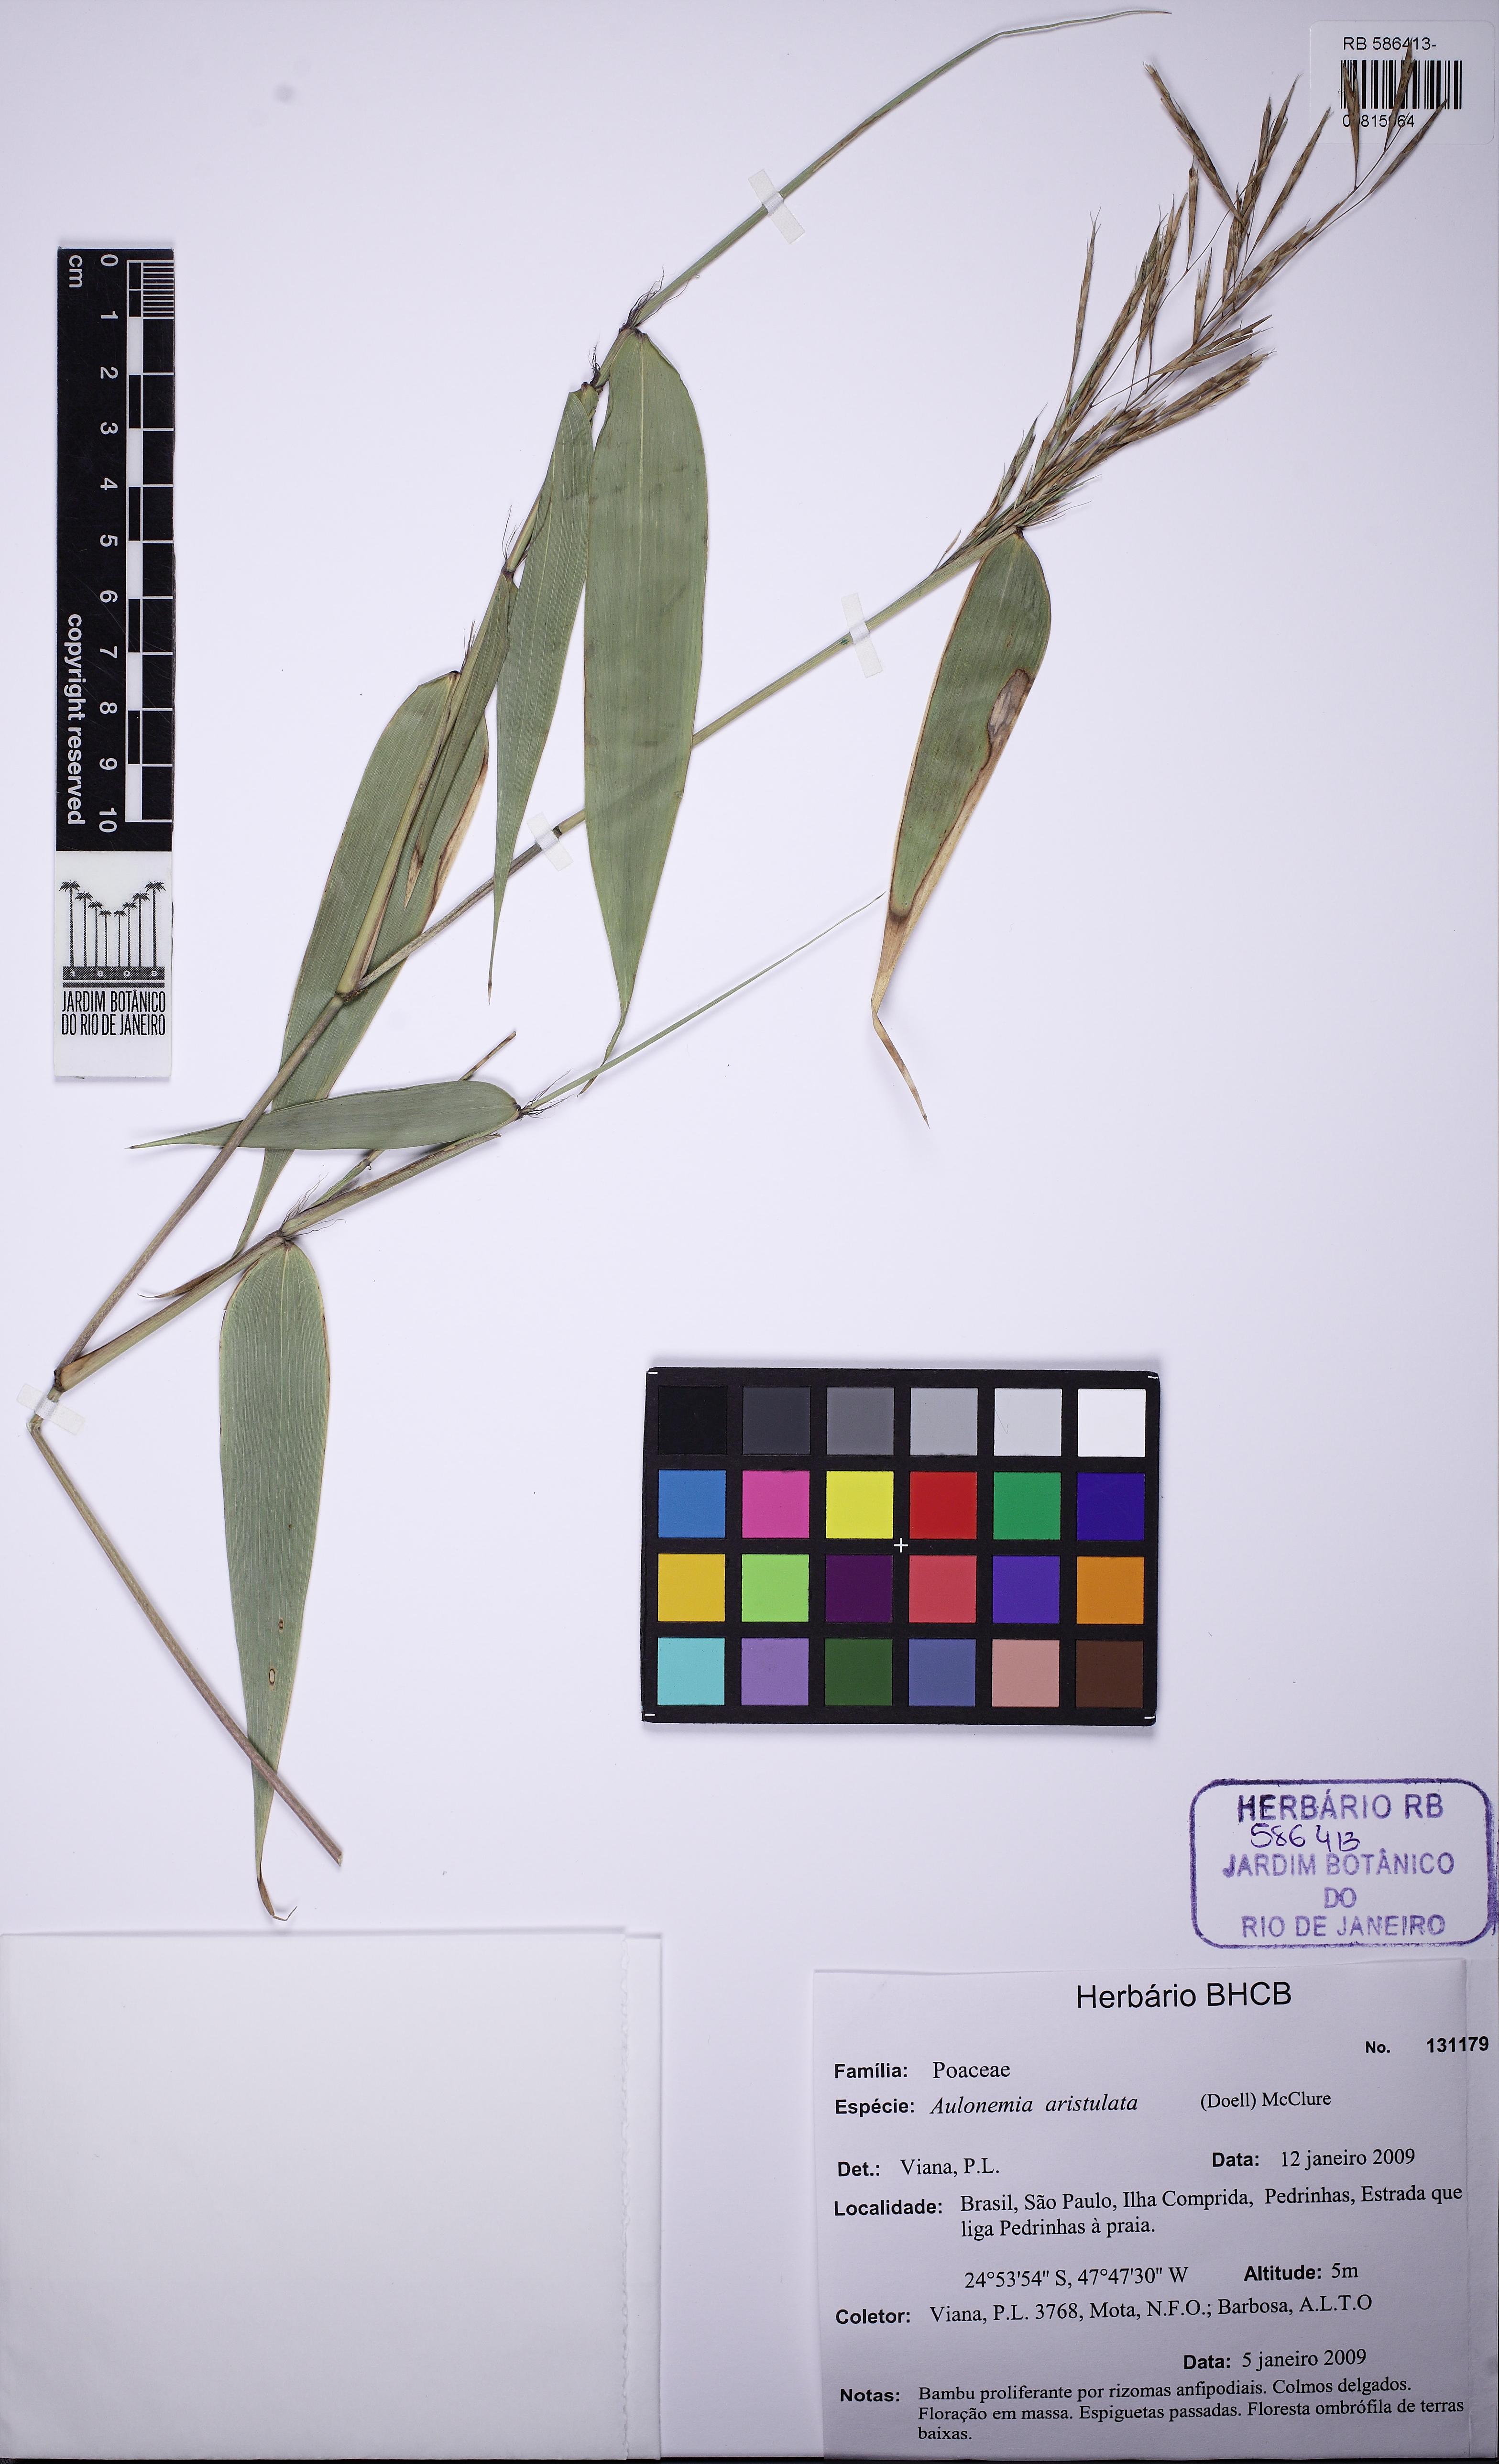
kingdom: Plantae
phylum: Tracheophyta
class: Liliopsida
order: Poales
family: Poaceae
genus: Aulonemia
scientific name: Aulonemia aristulata
